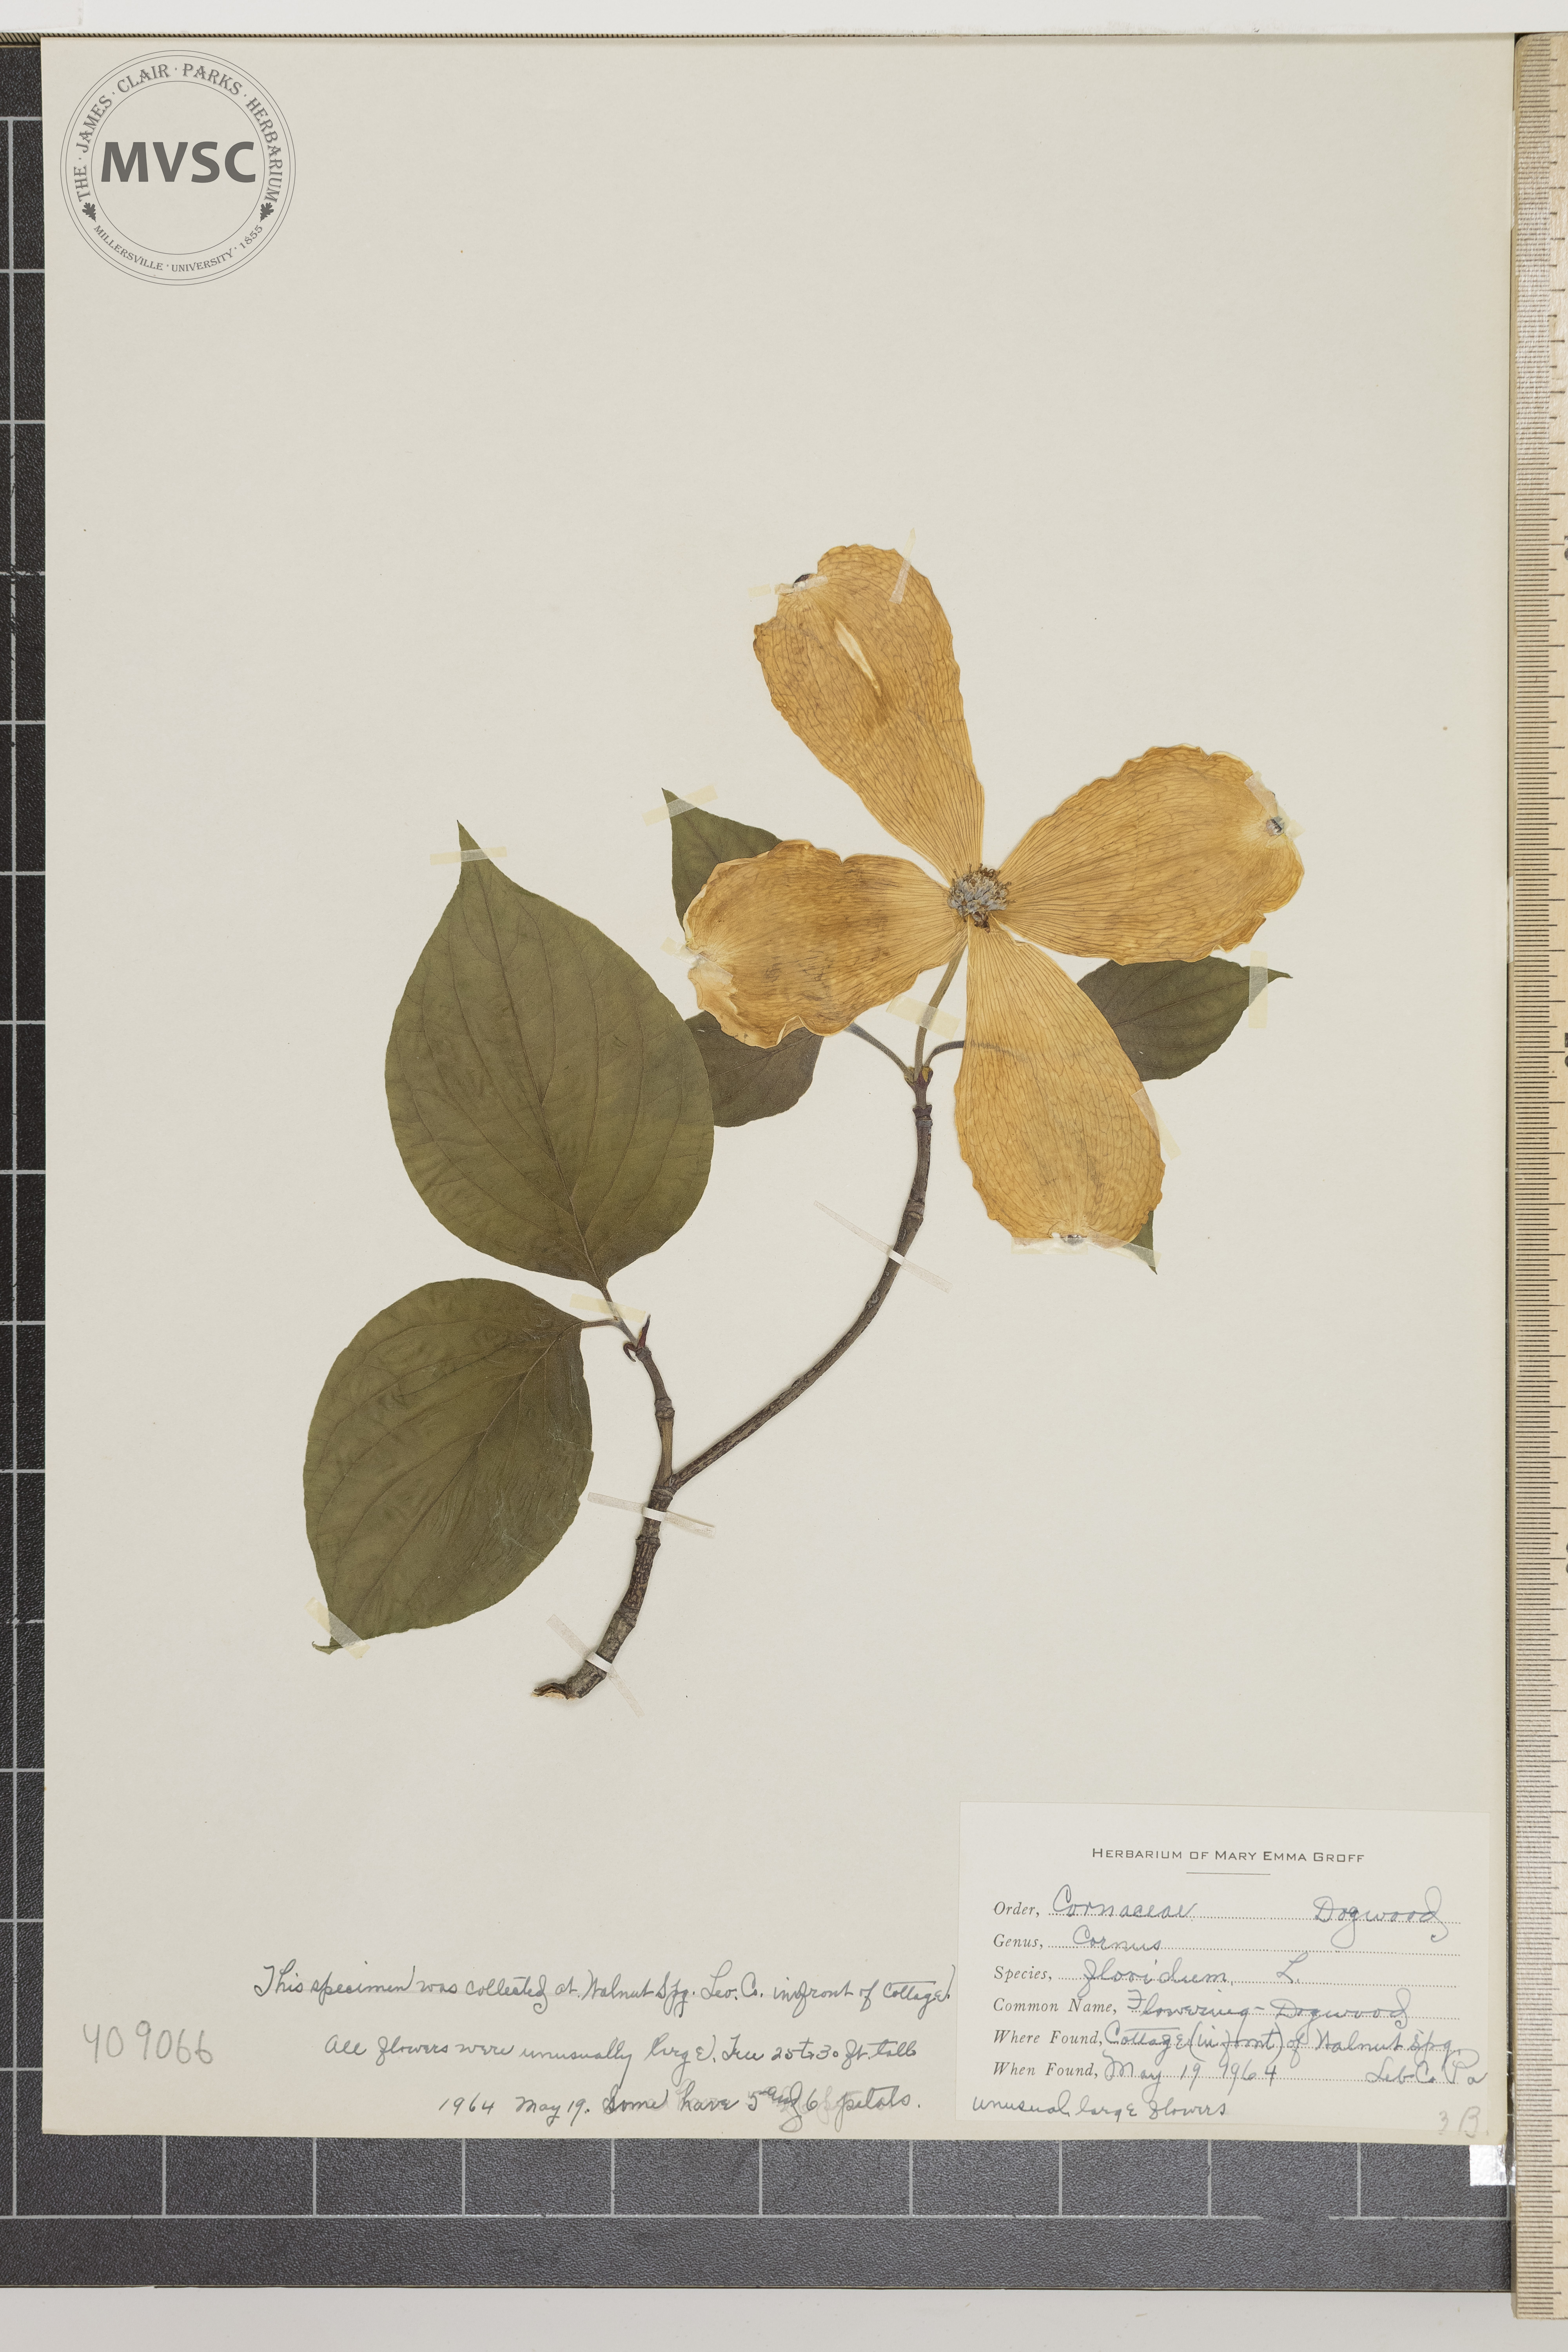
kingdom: Plantae
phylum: Tracheophyta
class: Magnoliopsida
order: Cornales
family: Cornaceae
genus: Cornus
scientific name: Cornus florida
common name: flowering Dogwood
